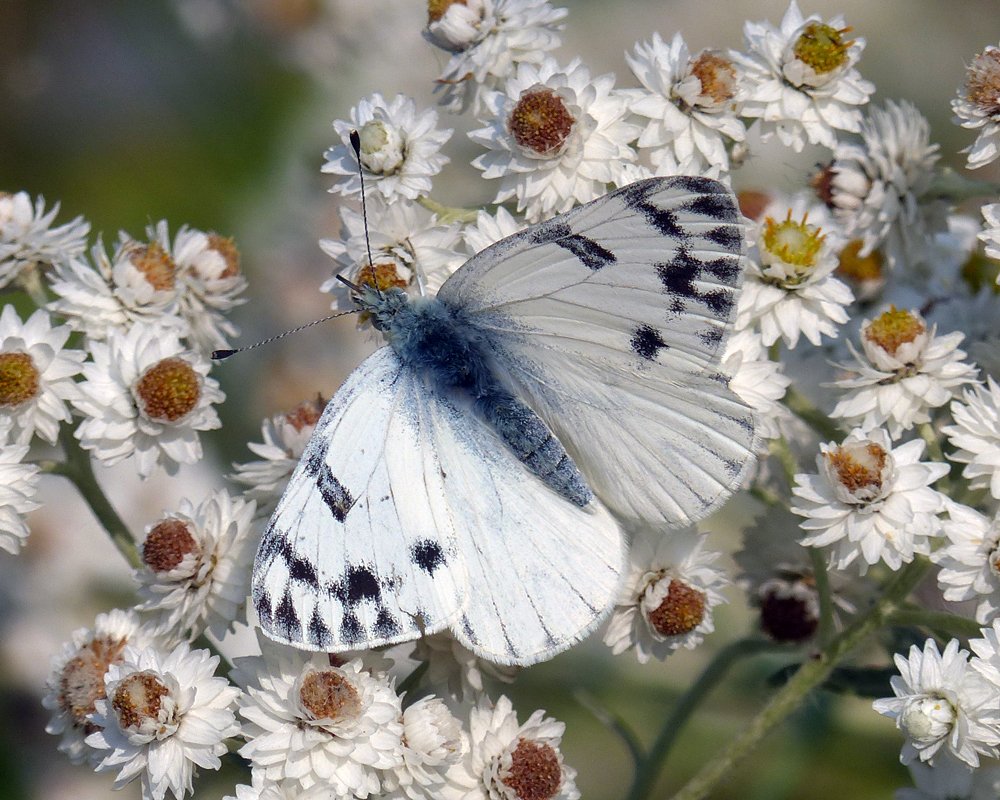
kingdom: Animalia
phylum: Arthropoda
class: Insecta
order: Lepidoptera
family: Pieridae
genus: Pontia
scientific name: Pontia occidentalis
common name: Western White
